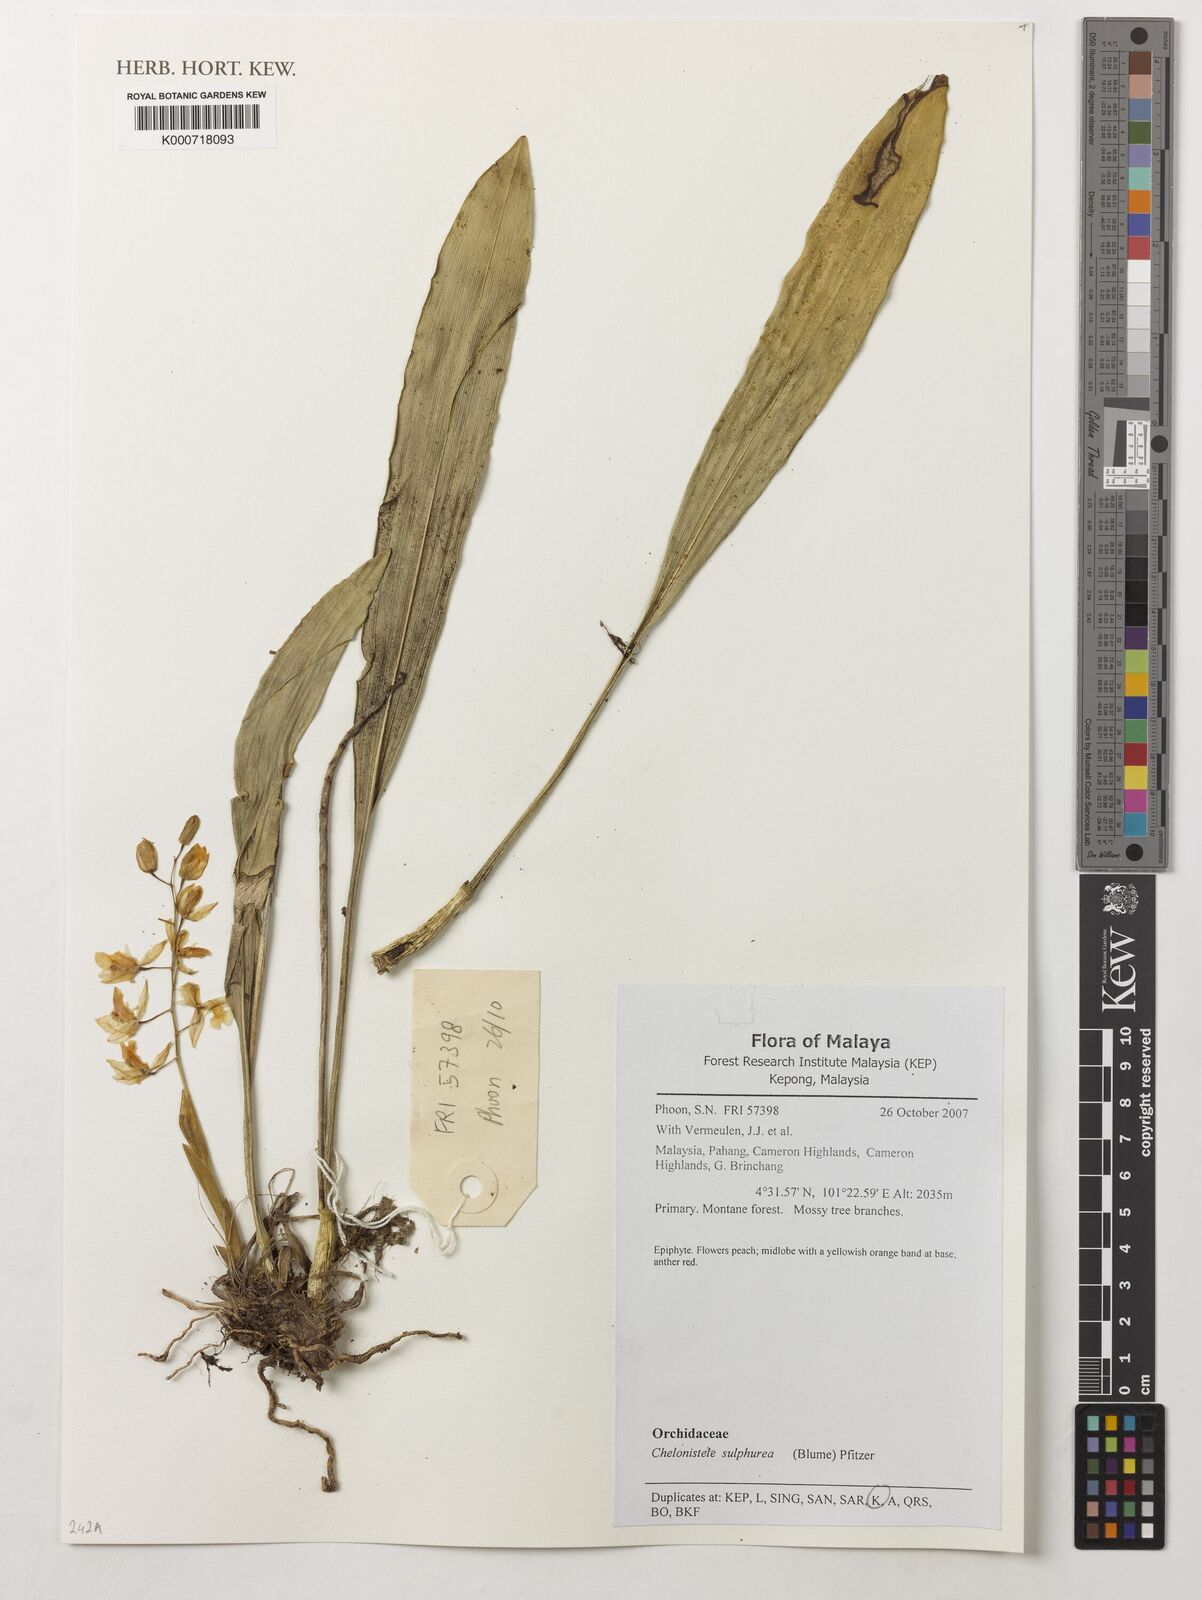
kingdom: Plantae
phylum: Tracheophyta
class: Liliopsida
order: Asparagales
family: Orchidaceae
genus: Coelogyne
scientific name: Coelogyne sulphurea
